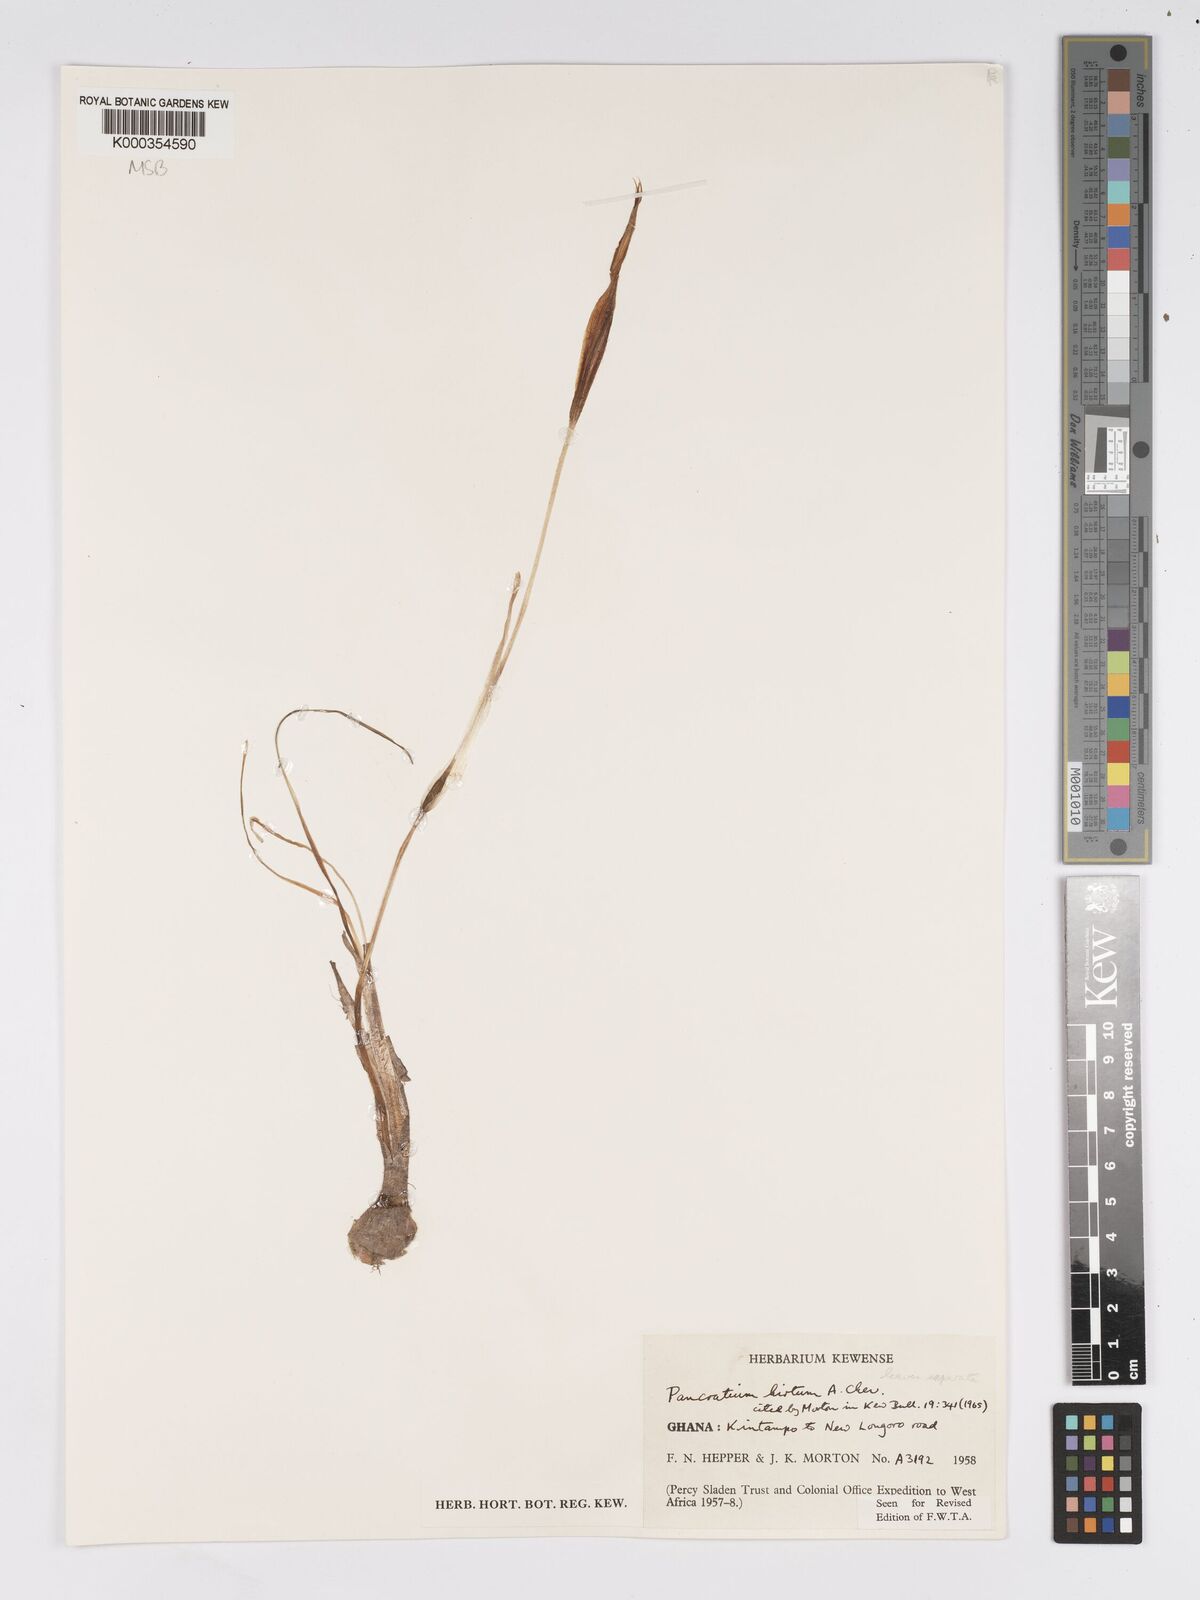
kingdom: Plantae
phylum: Tracheophyta
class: Liliopsida
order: Asparagales
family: Amaryllidaceae
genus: Pancratium
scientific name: Pancratium tenuifolium
